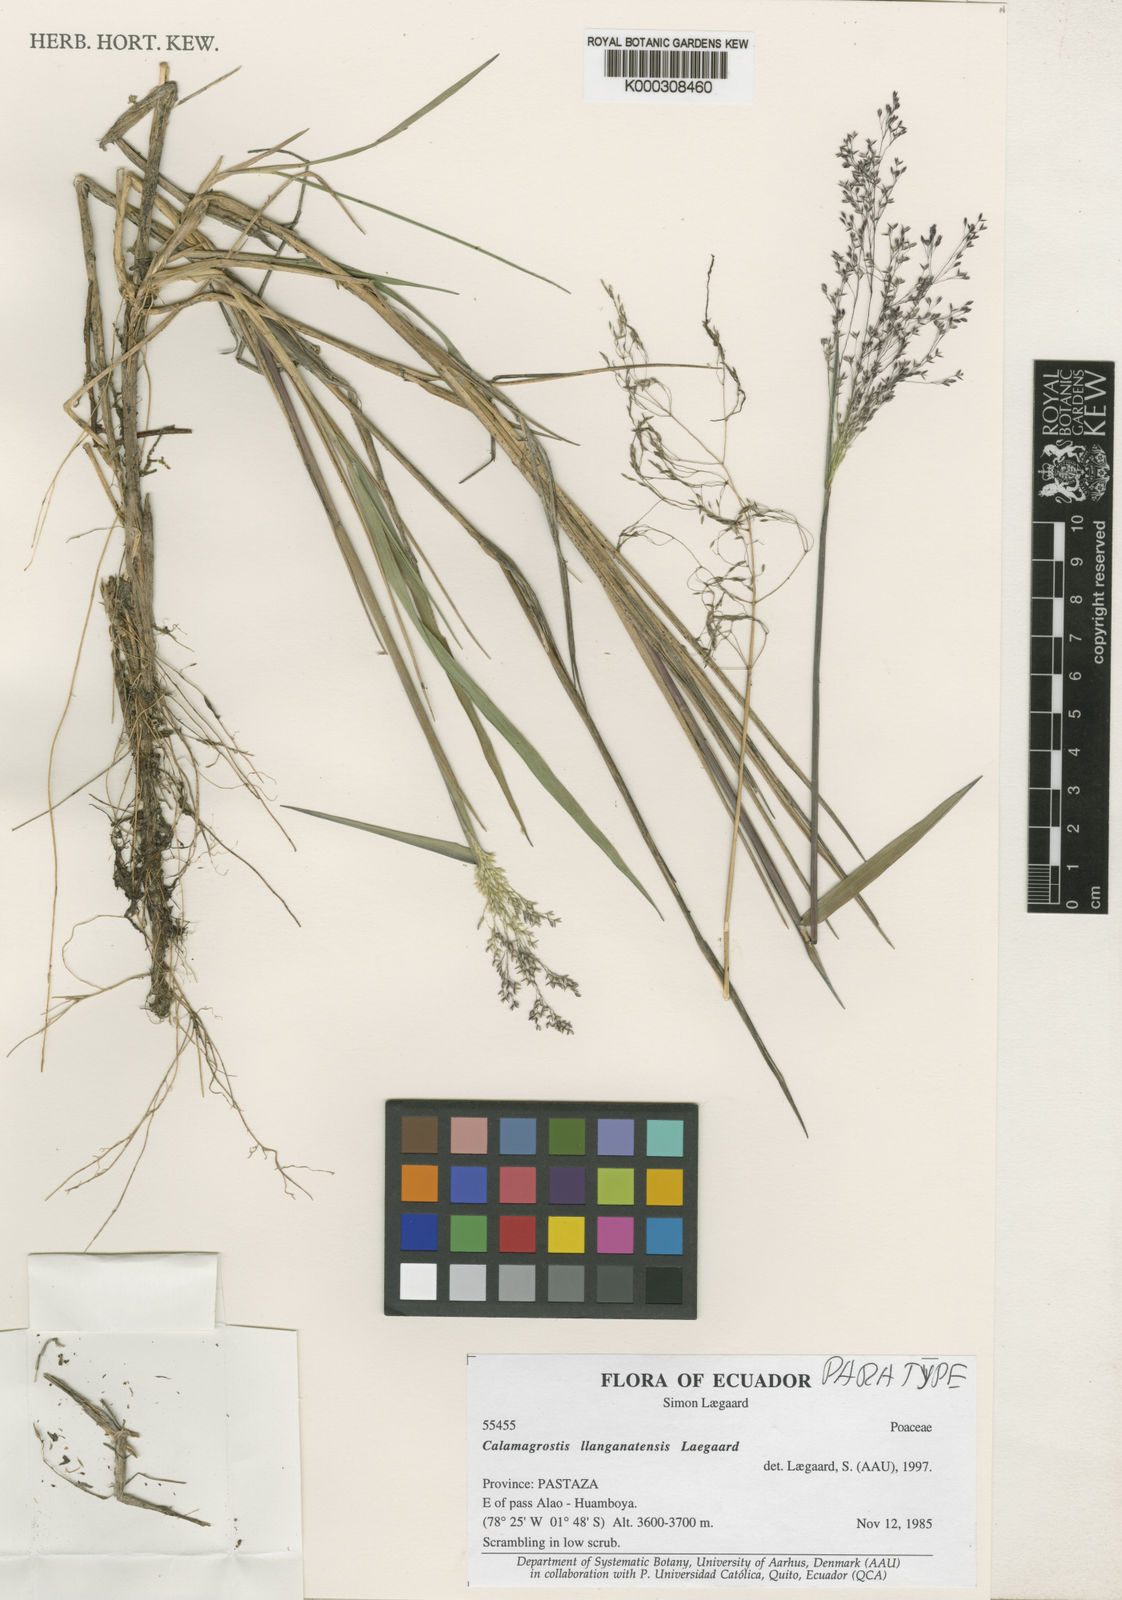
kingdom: Plantae
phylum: Tracheophyta
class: Liliopsida
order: Poales
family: Poaceae
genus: Calamagrostis
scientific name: Calamagrostis llanganatensis
